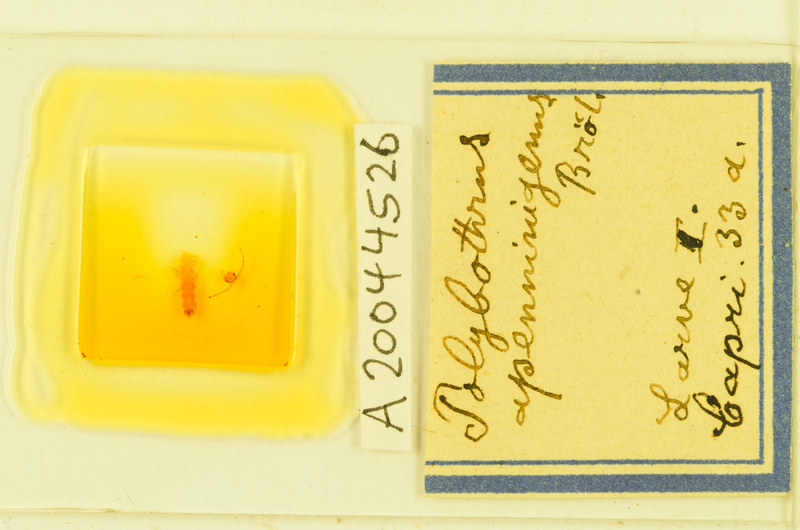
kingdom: Animalia
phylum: Arthropoda
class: Chilopoda
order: Lithobiomorpha
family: Lithobiidae
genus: Polybothrus
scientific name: Polybothrus
